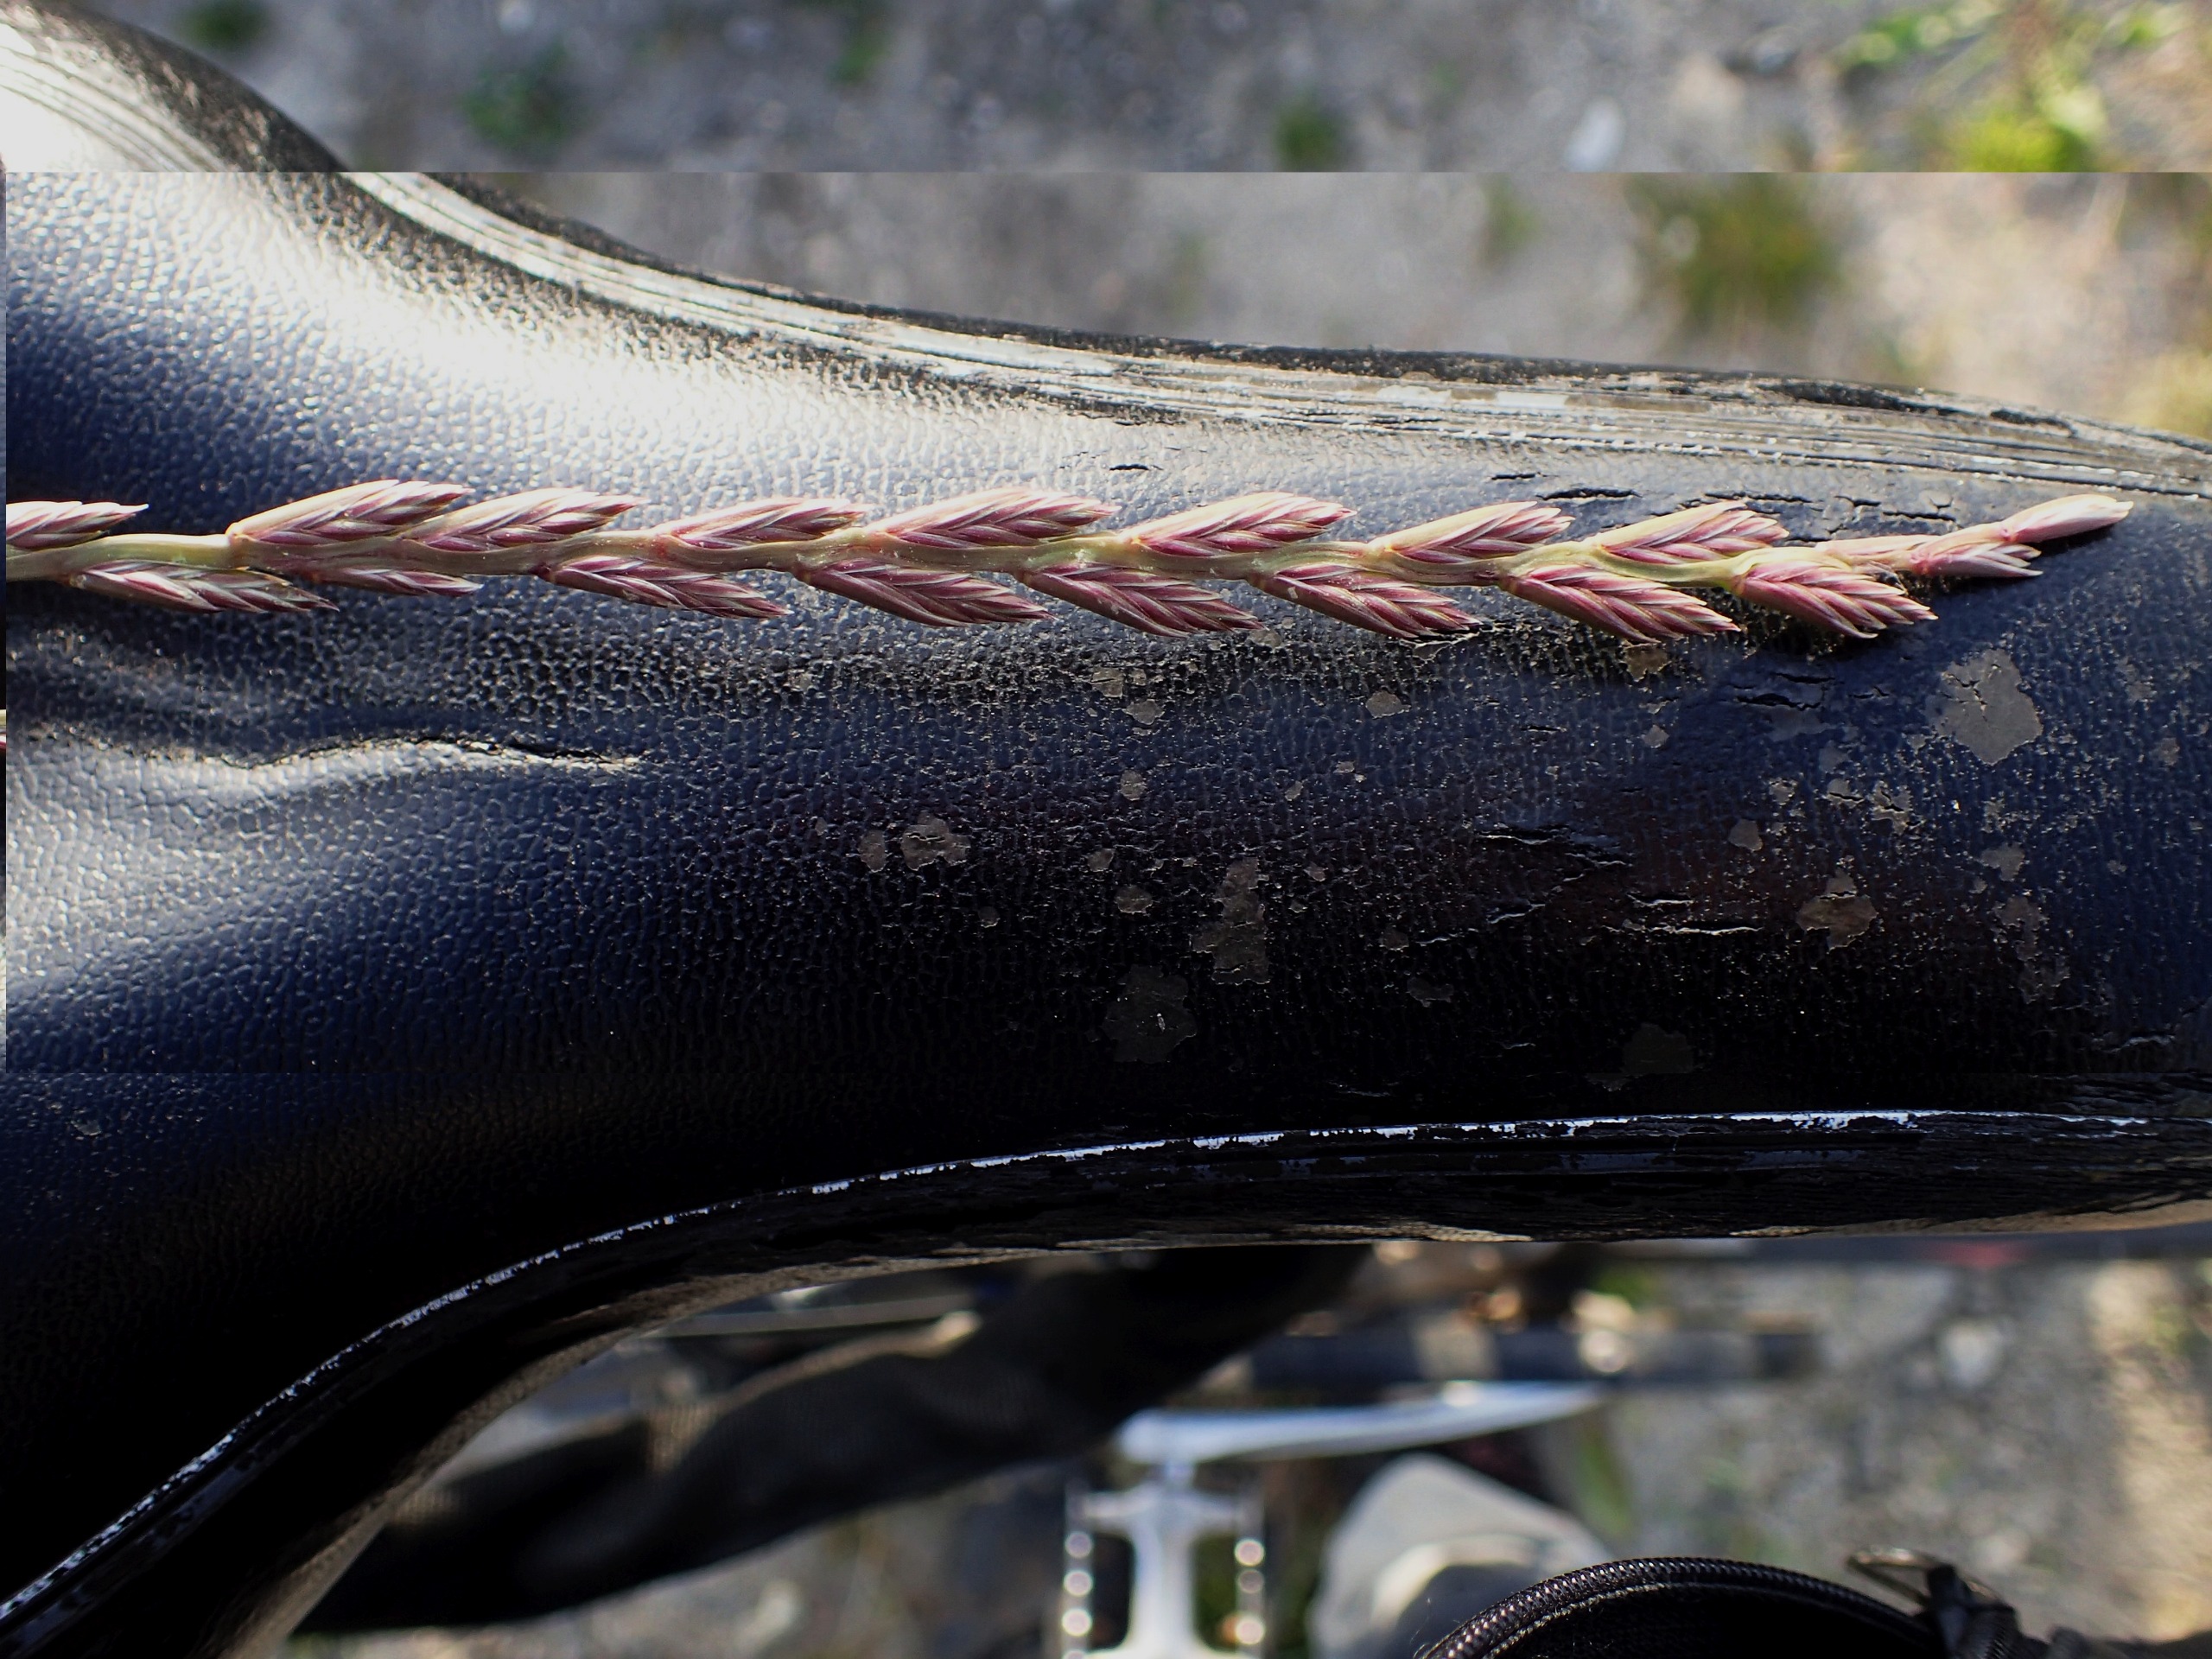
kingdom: Plantae
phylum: Tracheophyta
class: Liliopsida
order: Poales
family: Poaceae
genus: Lolium
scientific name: Lolium perenne
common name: Almindelig rajgræs
